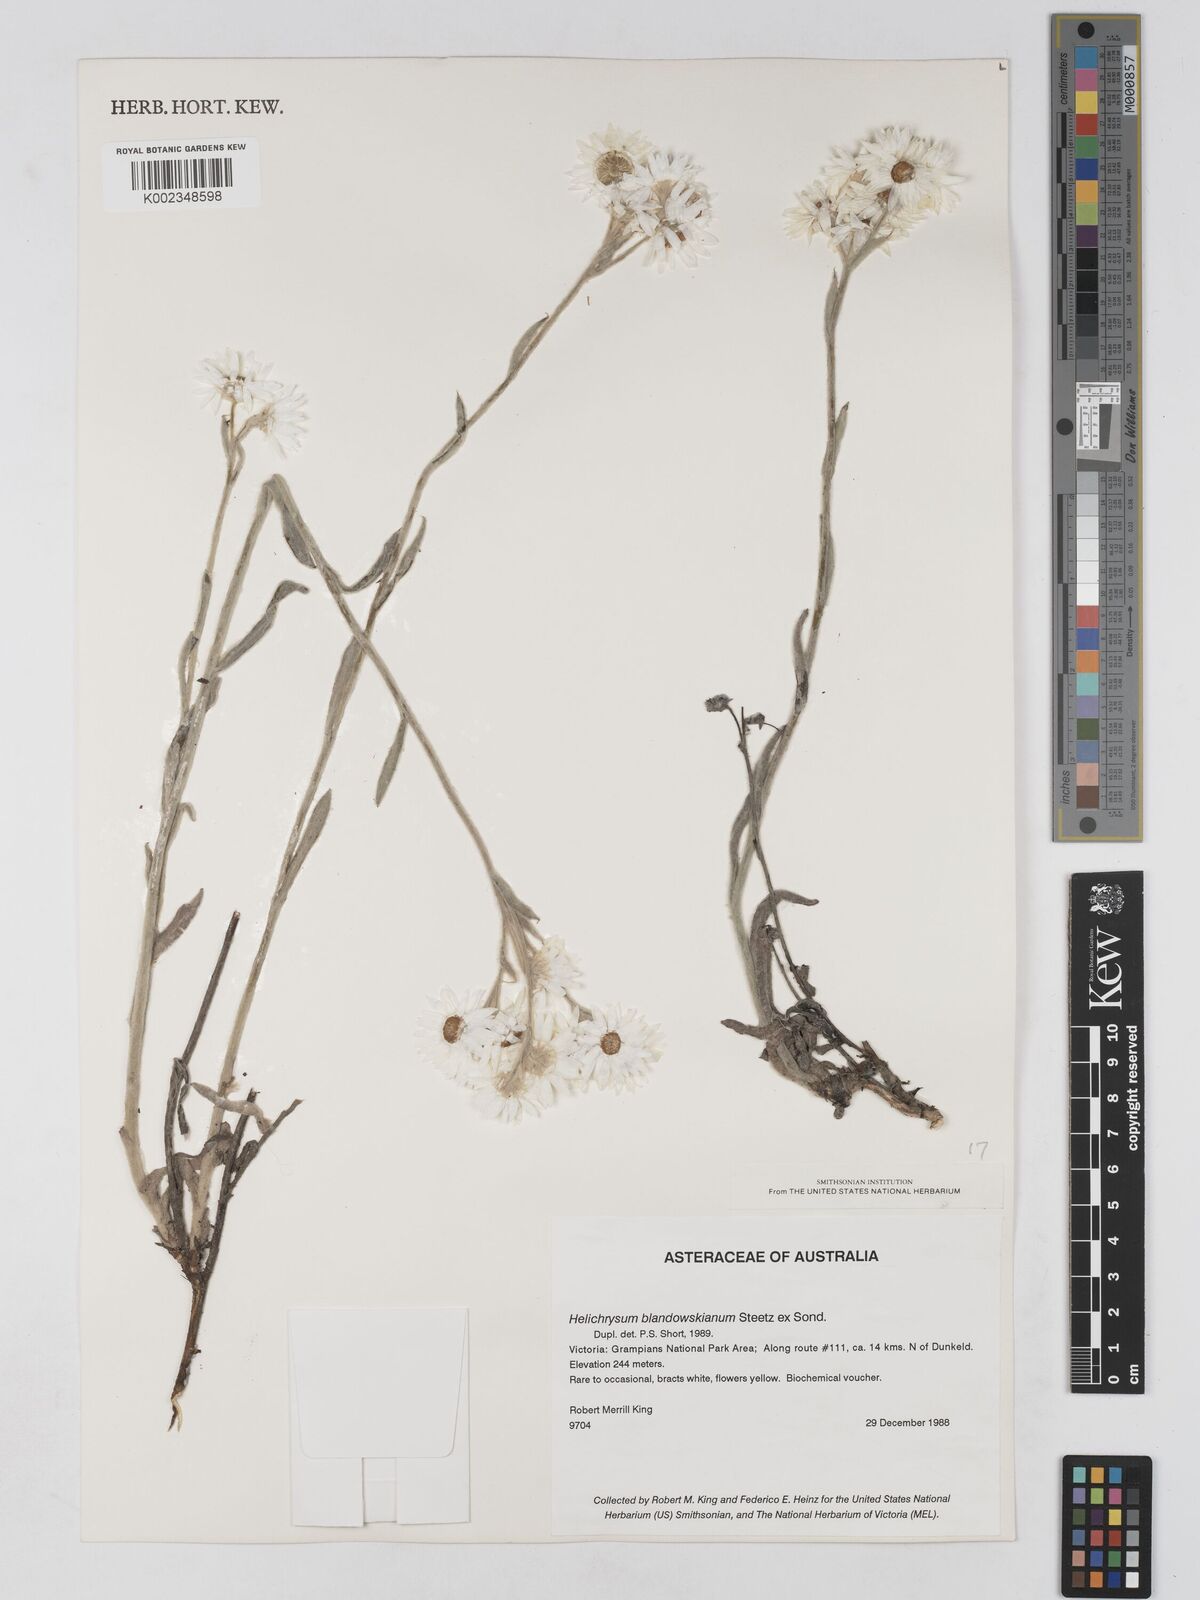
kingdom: Plantae
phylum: Tracheophyta
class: Magnoliopsida
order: Asterales
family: Asteraceae
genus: Argentipallium
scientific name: Argentipallium blandowskianum
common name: Woolly everlasting
